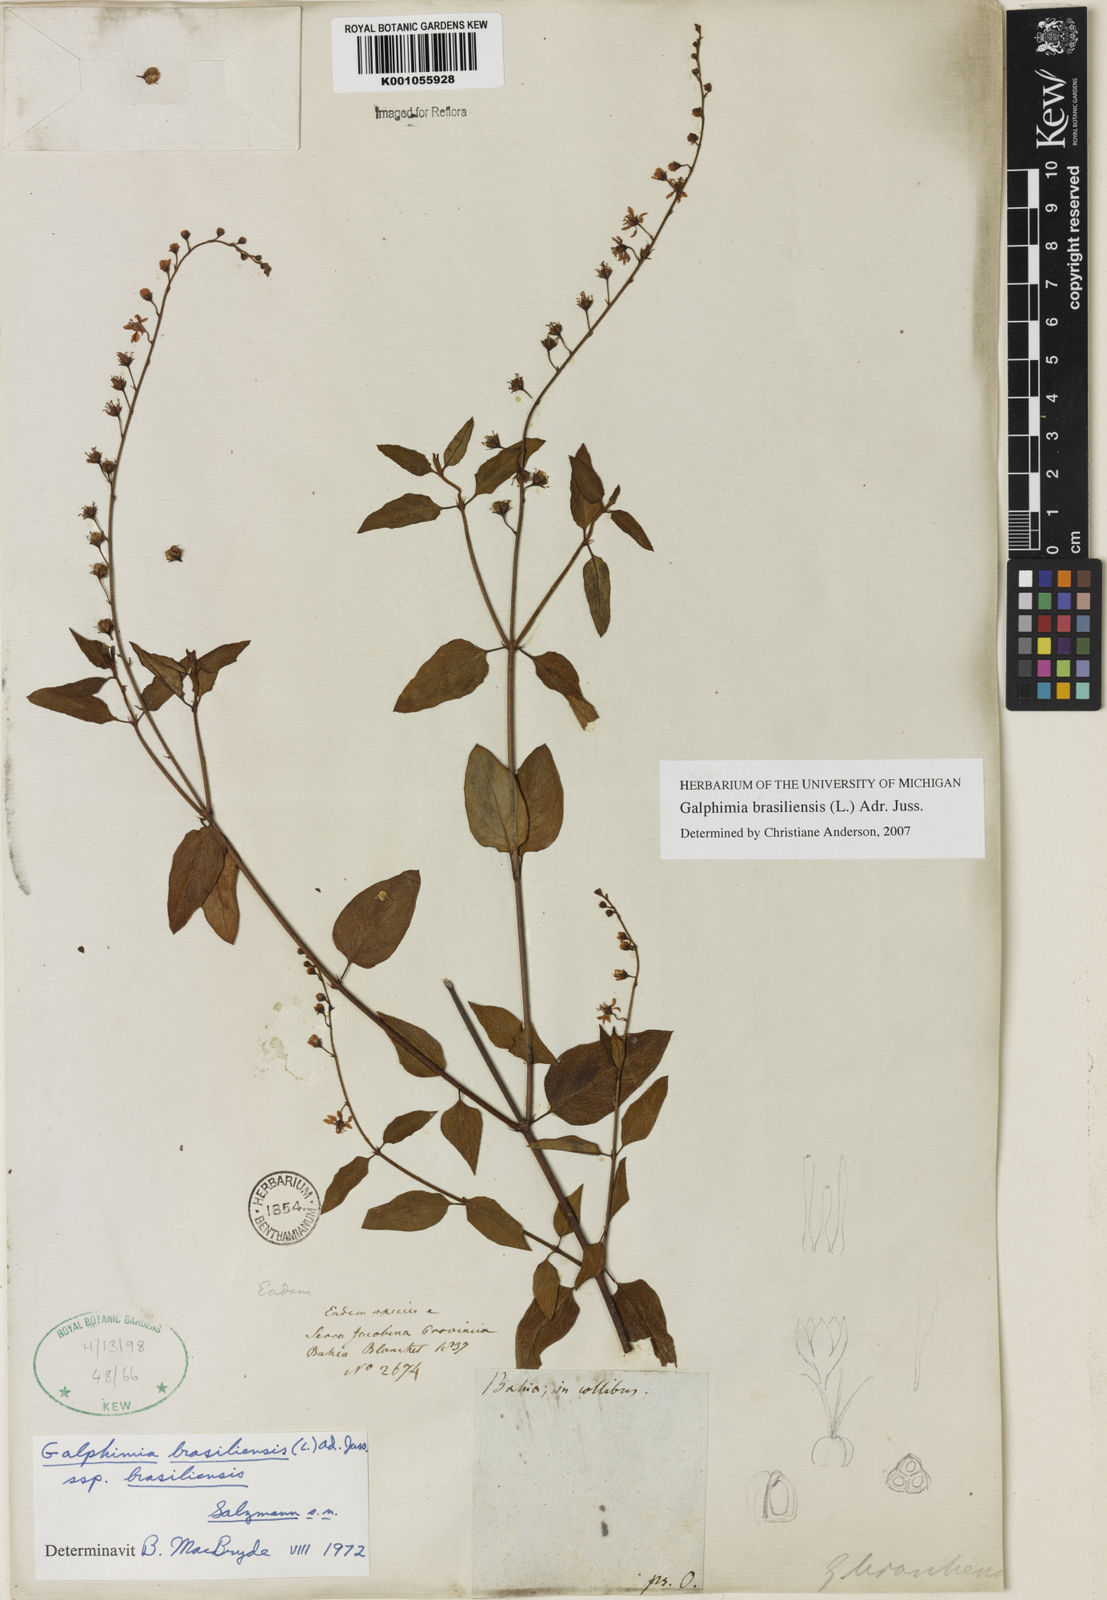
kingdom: Plantae
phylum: Tracheophyta
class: Magnoliopsida
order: Malpighiales
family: Malpighiaceae
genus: Galphimia
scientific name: Galphimia brasiliensis
